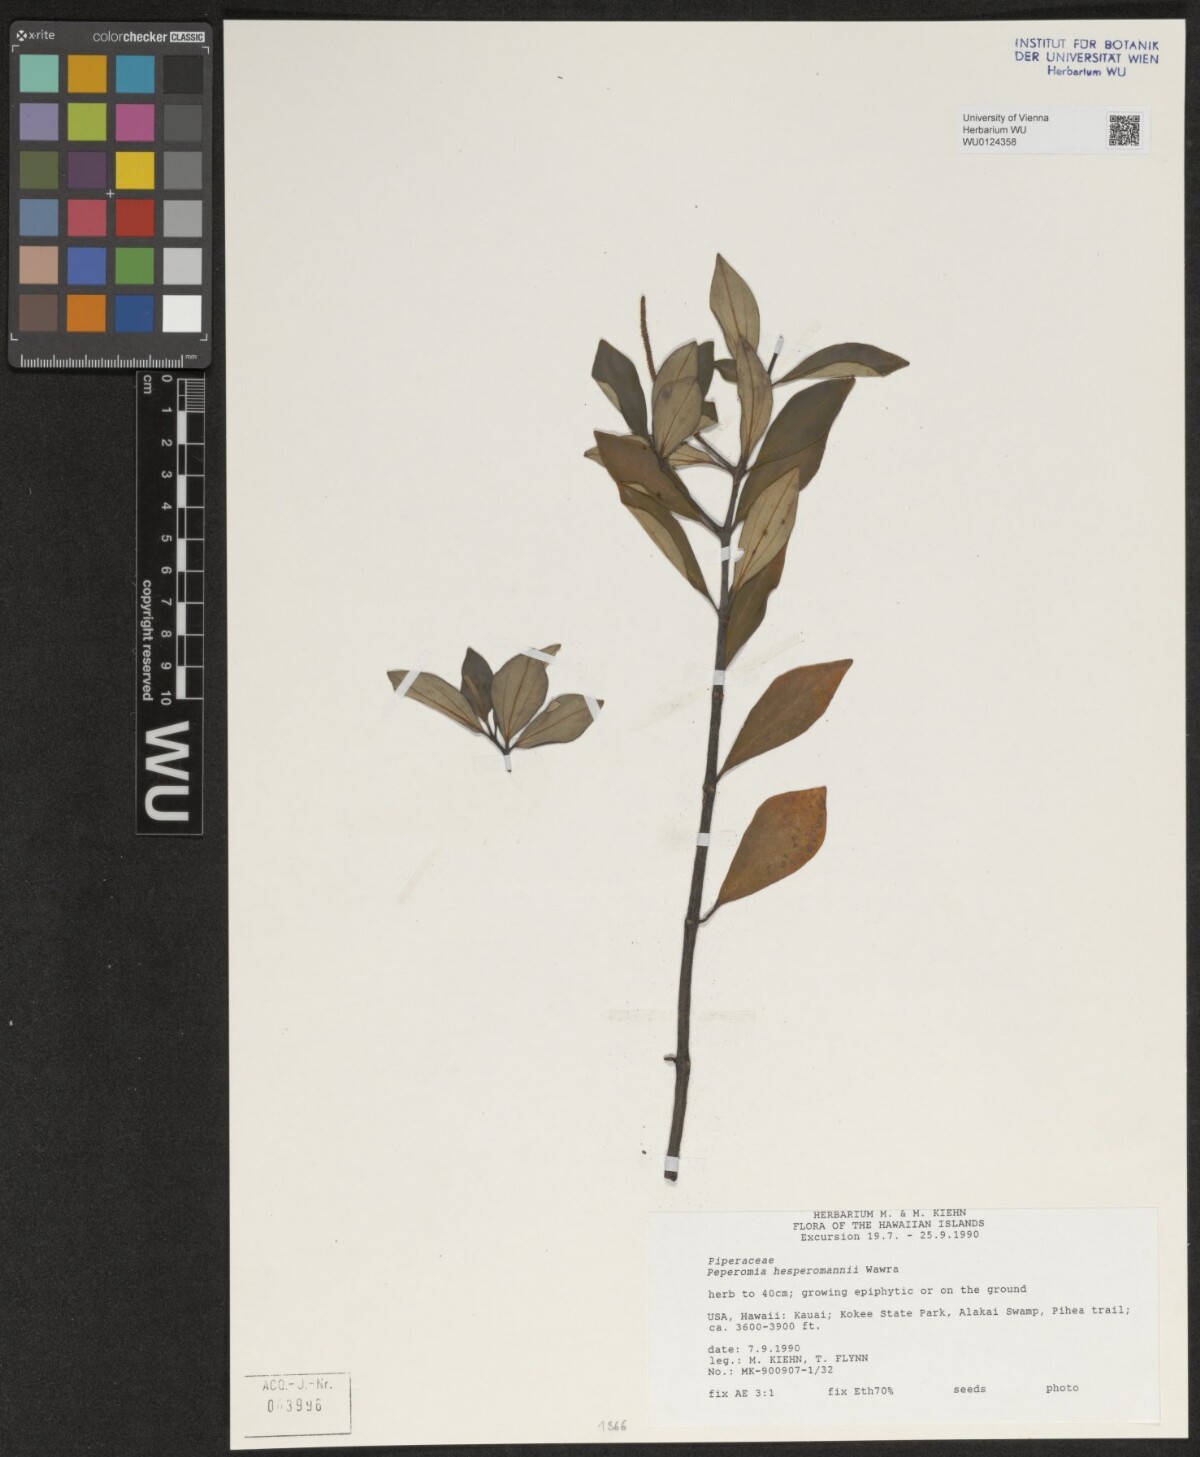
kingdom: Plantae
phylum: Tracheophyta
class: Magnoliopsida
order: Piperales
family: Piperaceae
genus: Peperomia
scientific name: Peperomia hesperomannii
